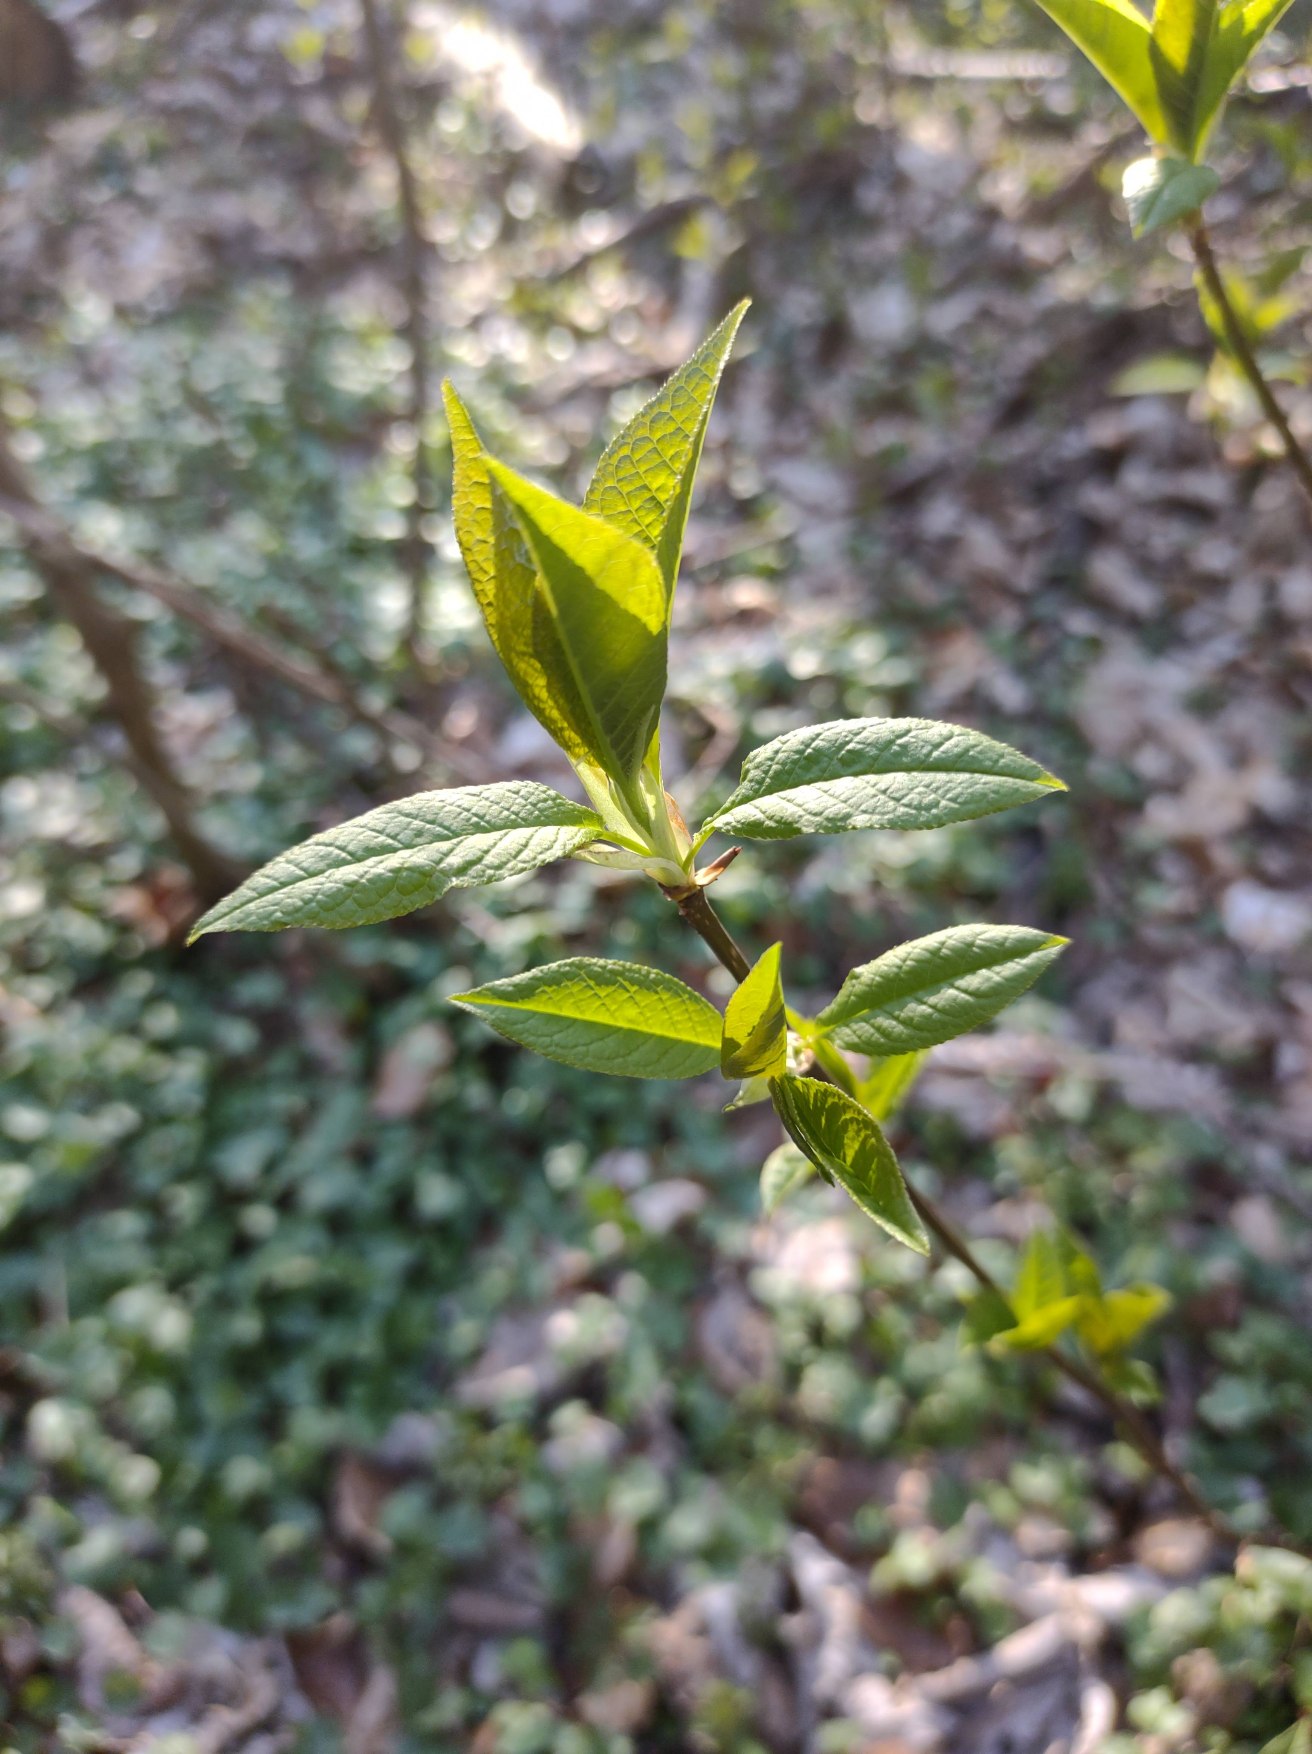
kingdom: Plantae
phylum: Tracheophyta
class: Magnoliopsida
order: Rosales
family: Rosaceae
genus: Prunus
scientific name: Prunus padus
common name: Almindelig hæg
